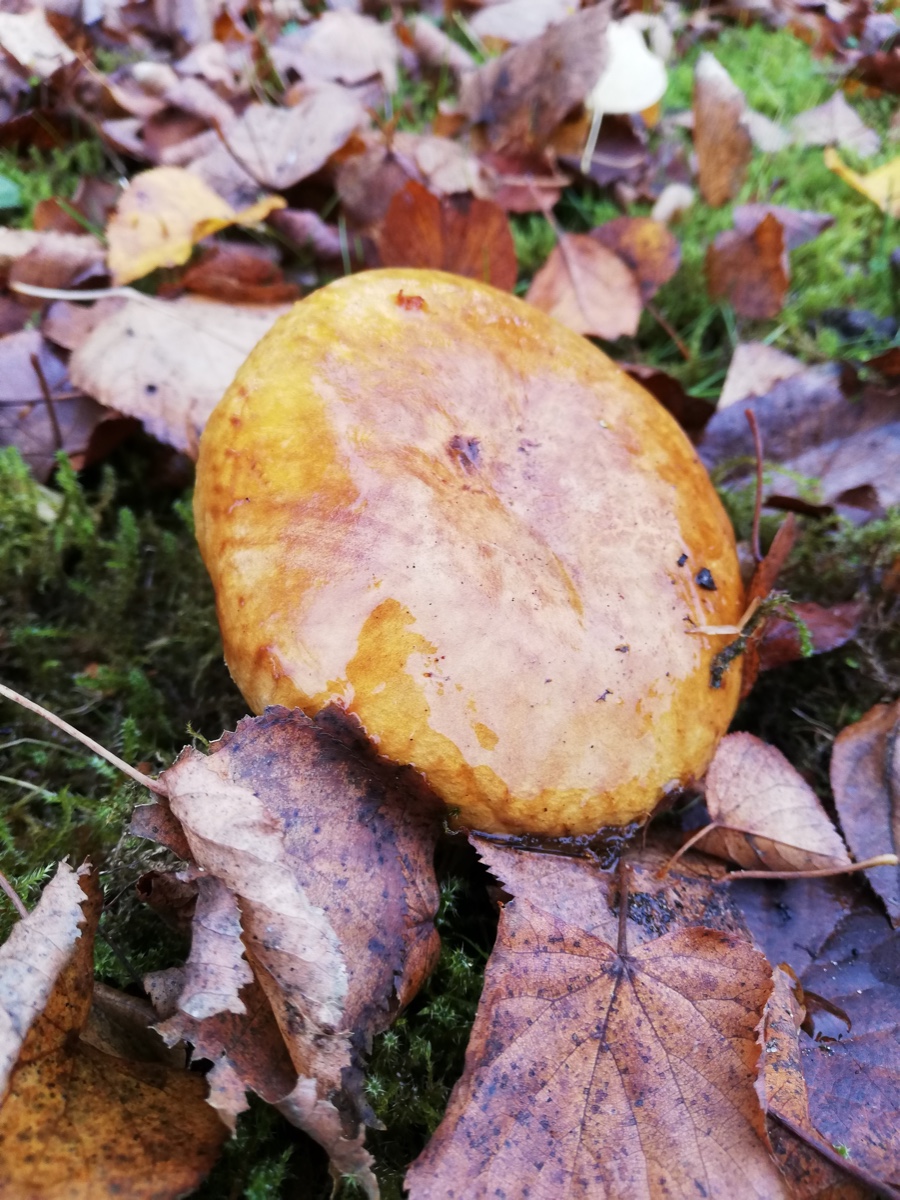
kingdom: Fungi
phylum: Basidiomycota
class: Agaricomycetes
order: Boletales
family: Paxillaceae
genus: Paxillus
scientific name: Paxillus
